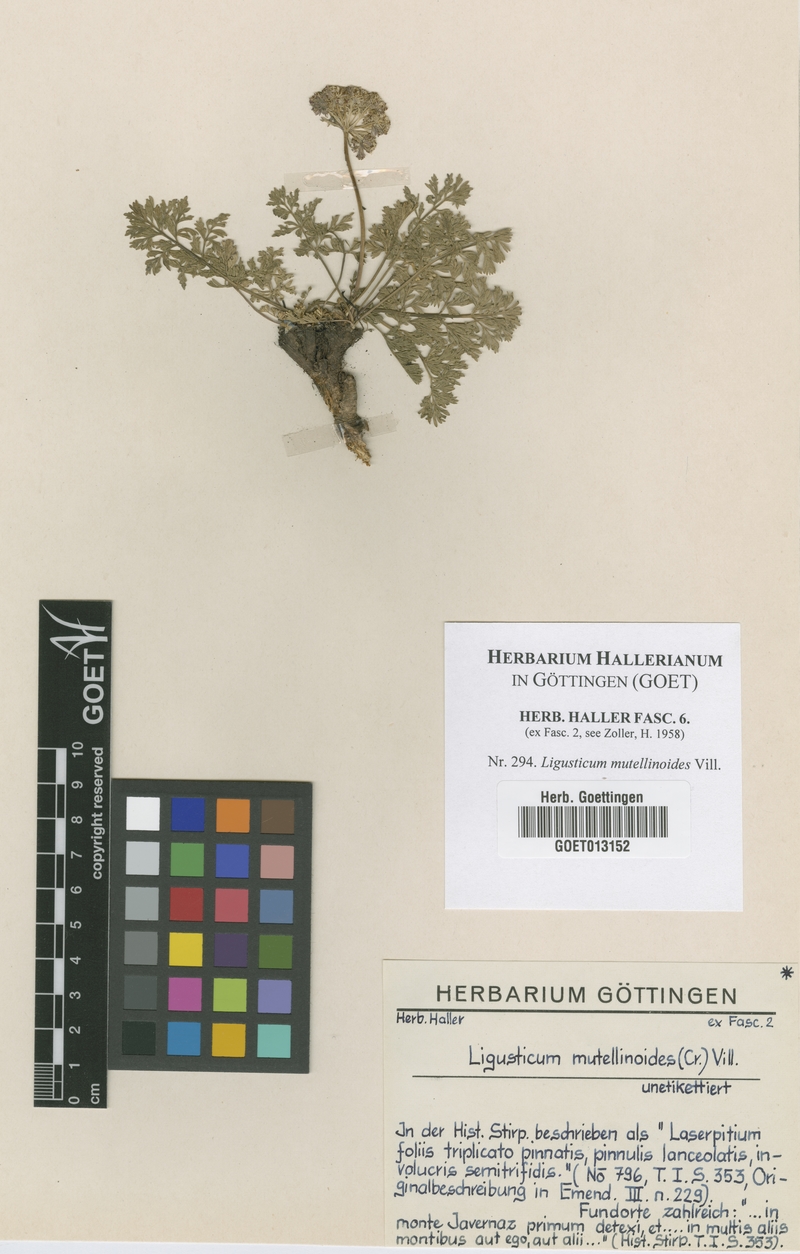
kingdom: Plantae
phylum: Tracheophyta
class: Magnoliopsida
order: Apiales
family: Apiaceae
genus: Pachypleurum
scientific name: Pachypleurum mutellinoides
